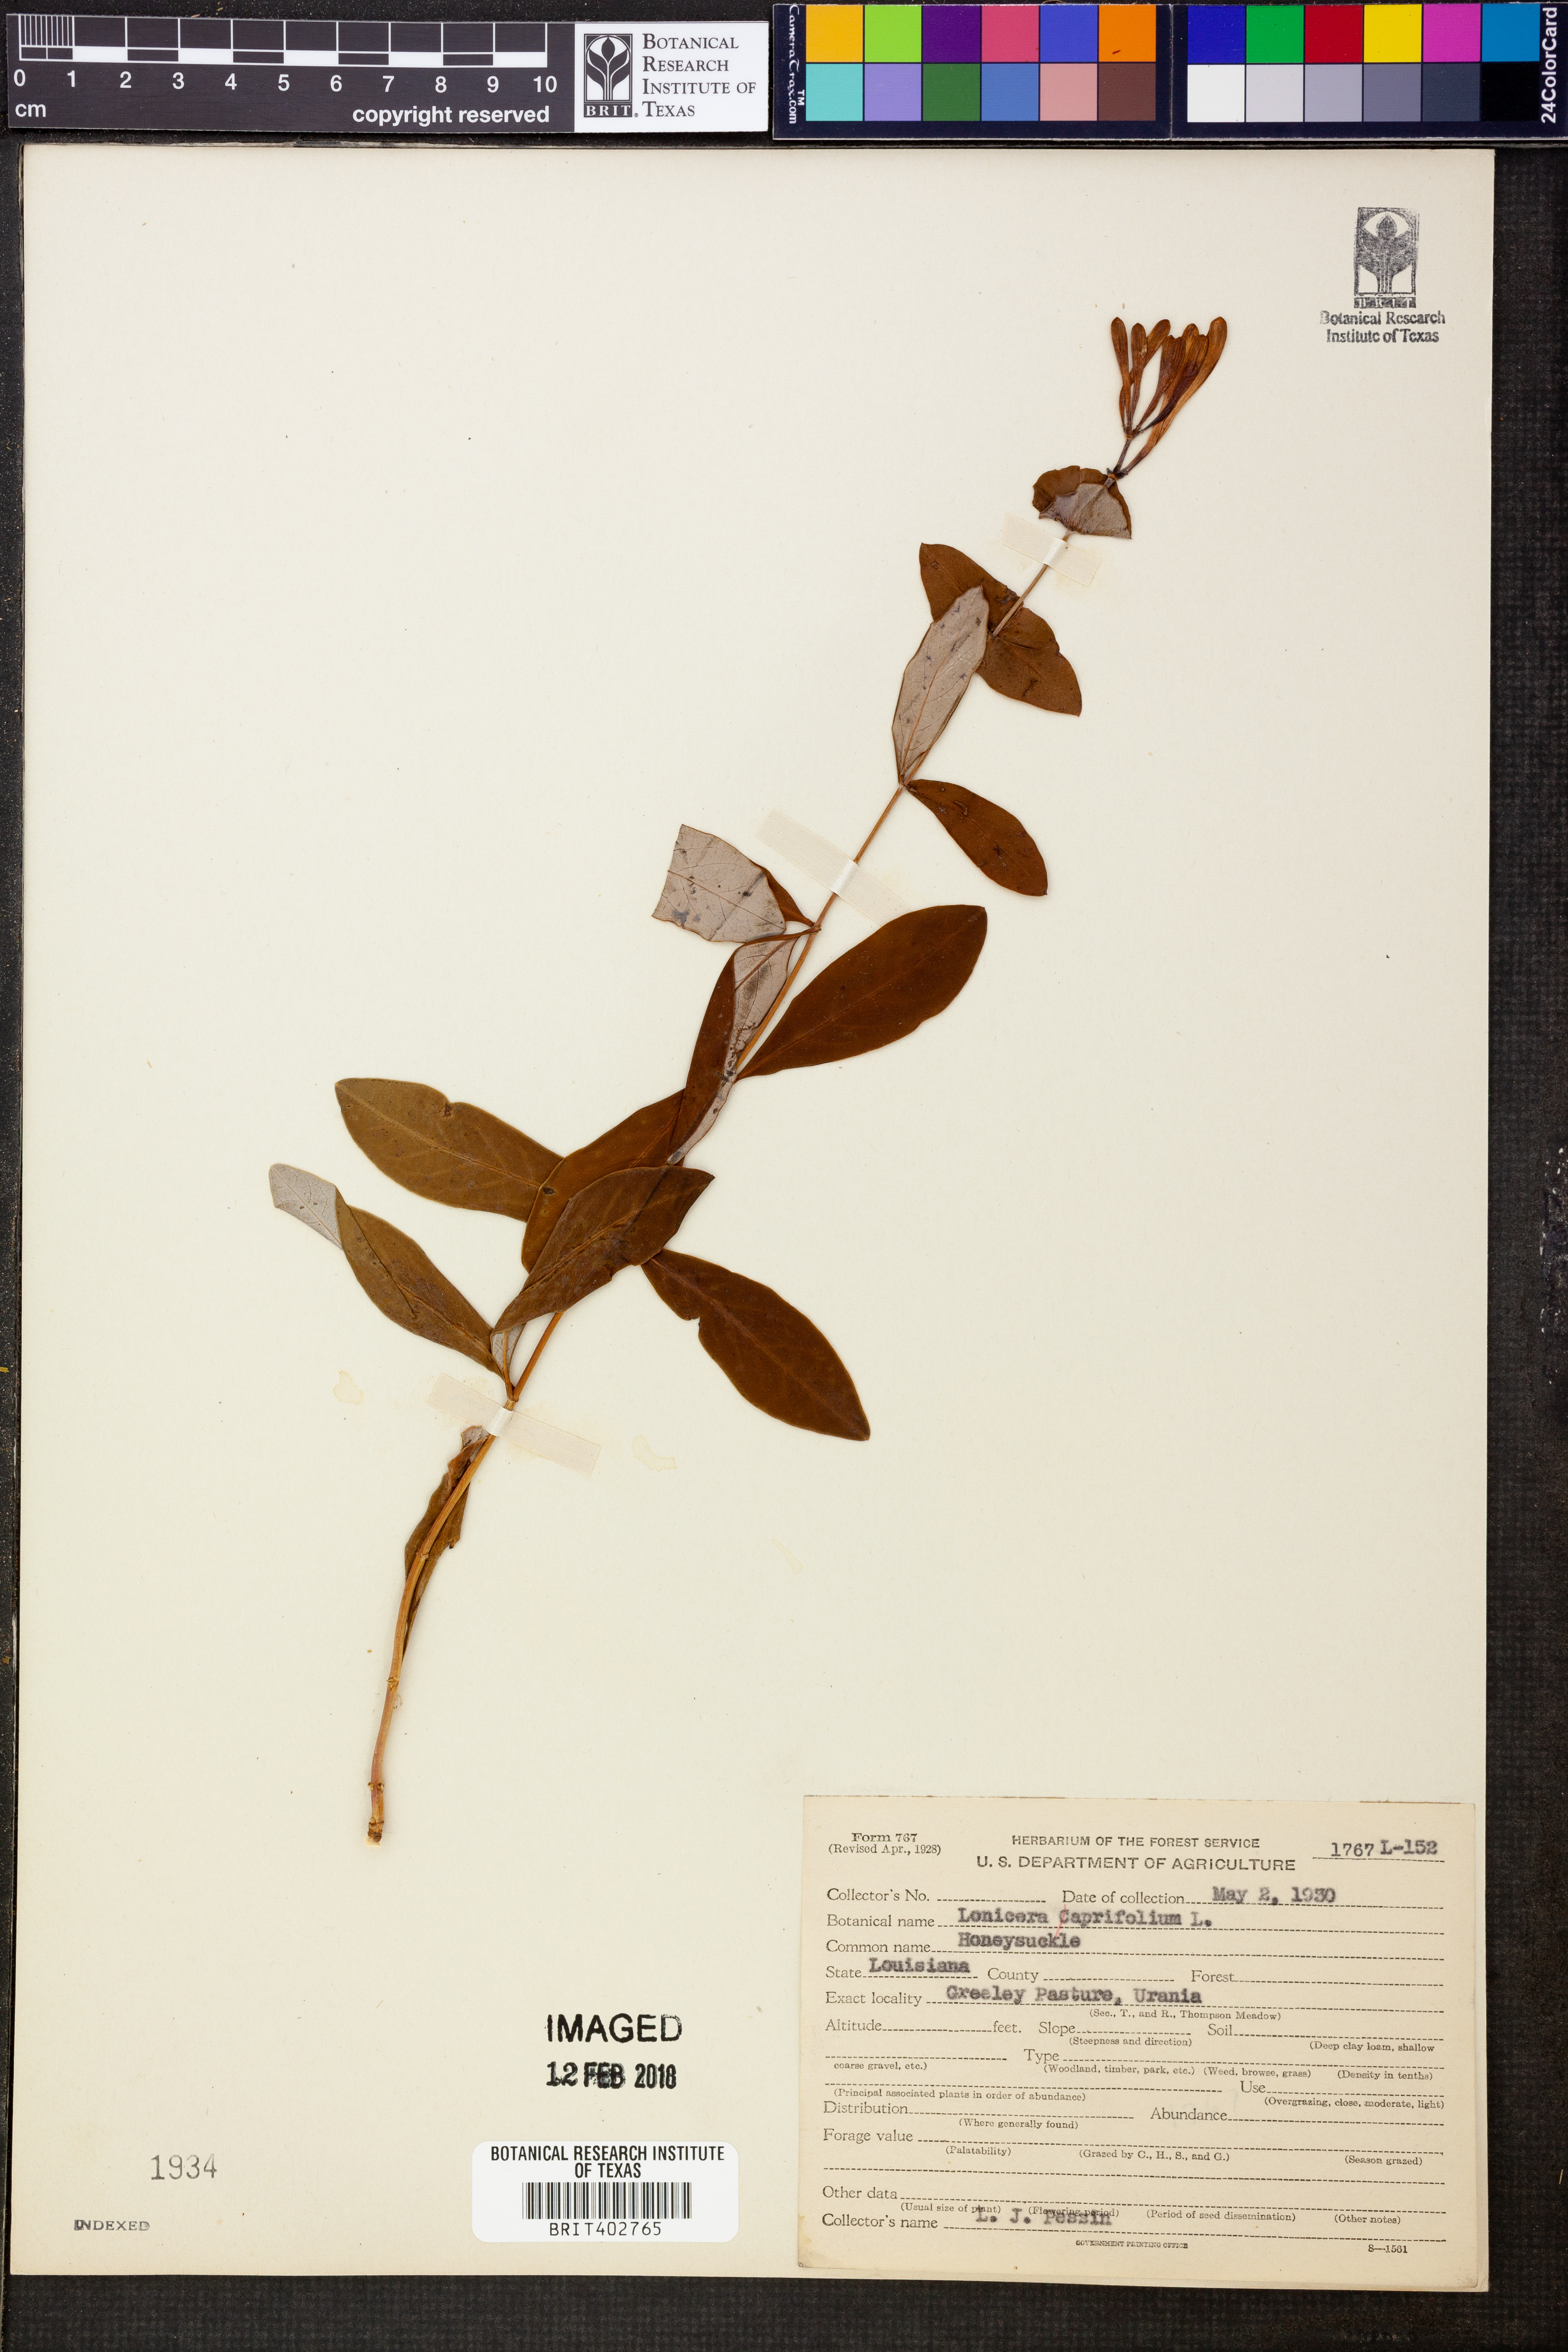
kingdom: Plantae
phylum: Tracheophyta
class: Magnoliopsida
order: Dipsacales
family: Caprifoliaceae
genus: Lonicera
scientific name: Lonicera caprifolium
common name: Perfoliate honeysuckle
